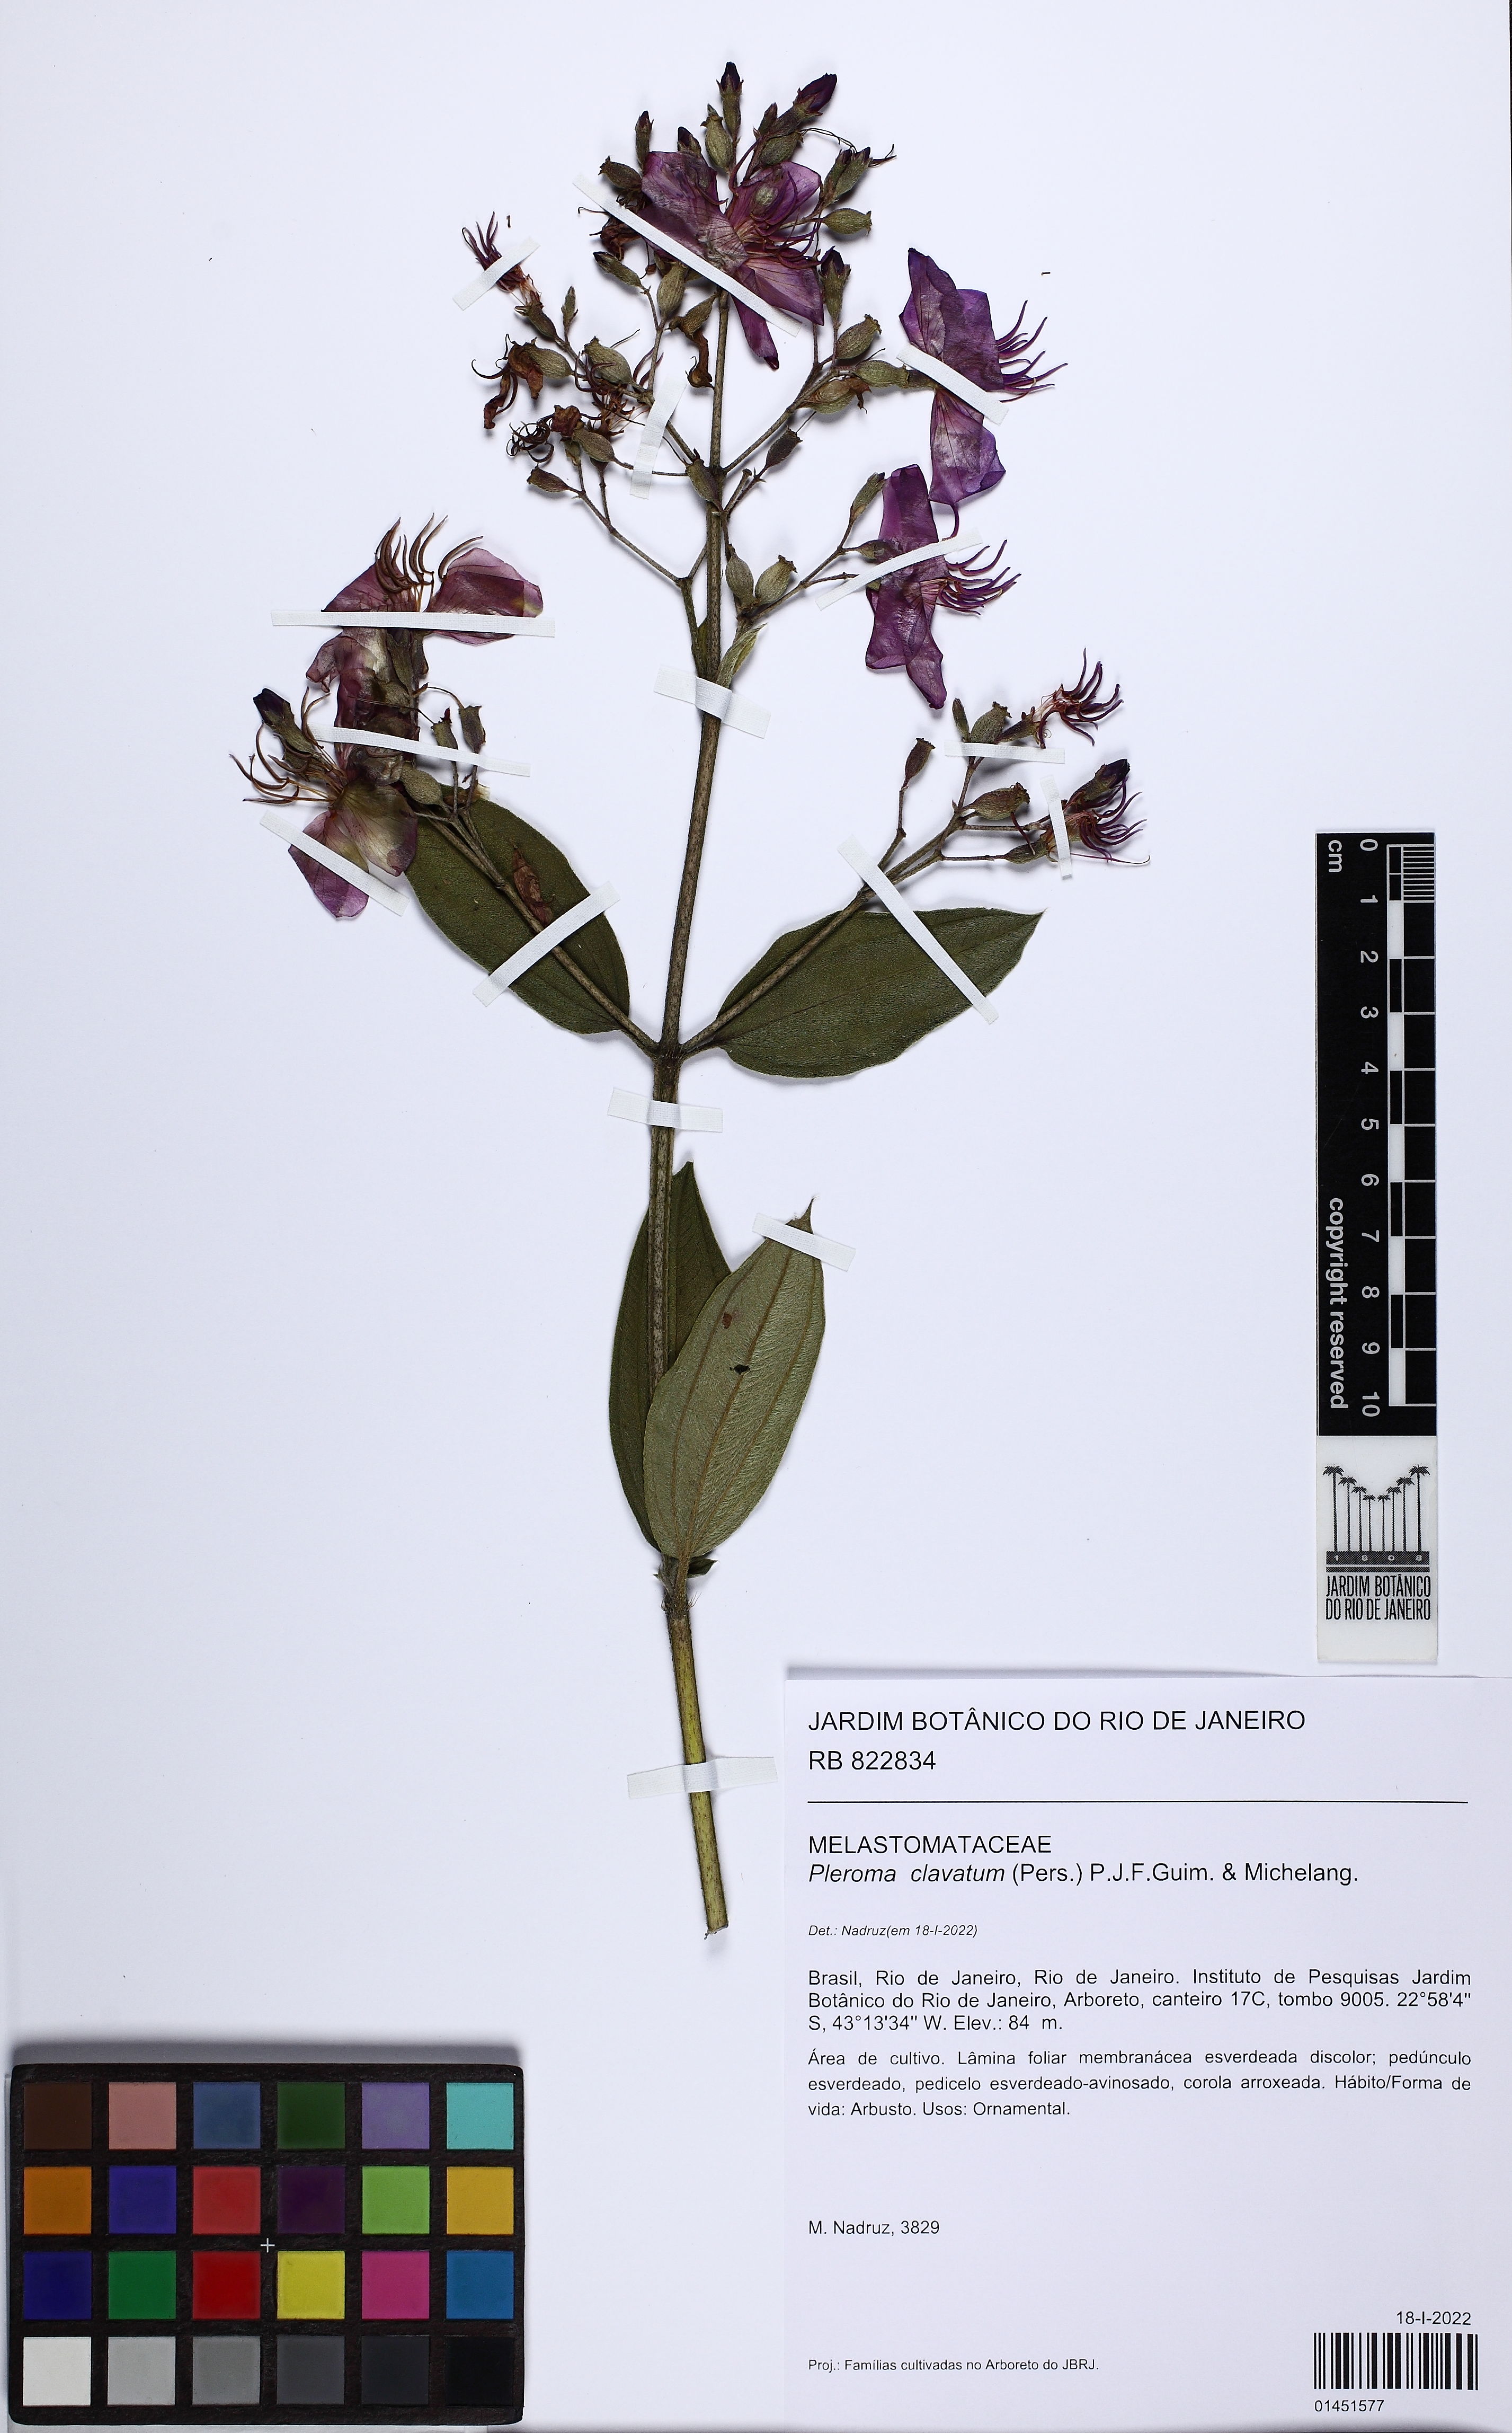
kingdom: Plantae
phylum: Tracheophyta
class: Magnoliopsida
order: Myrtales
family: Melastomataceae
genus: Pleroma
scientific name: Pleroma clavatum
